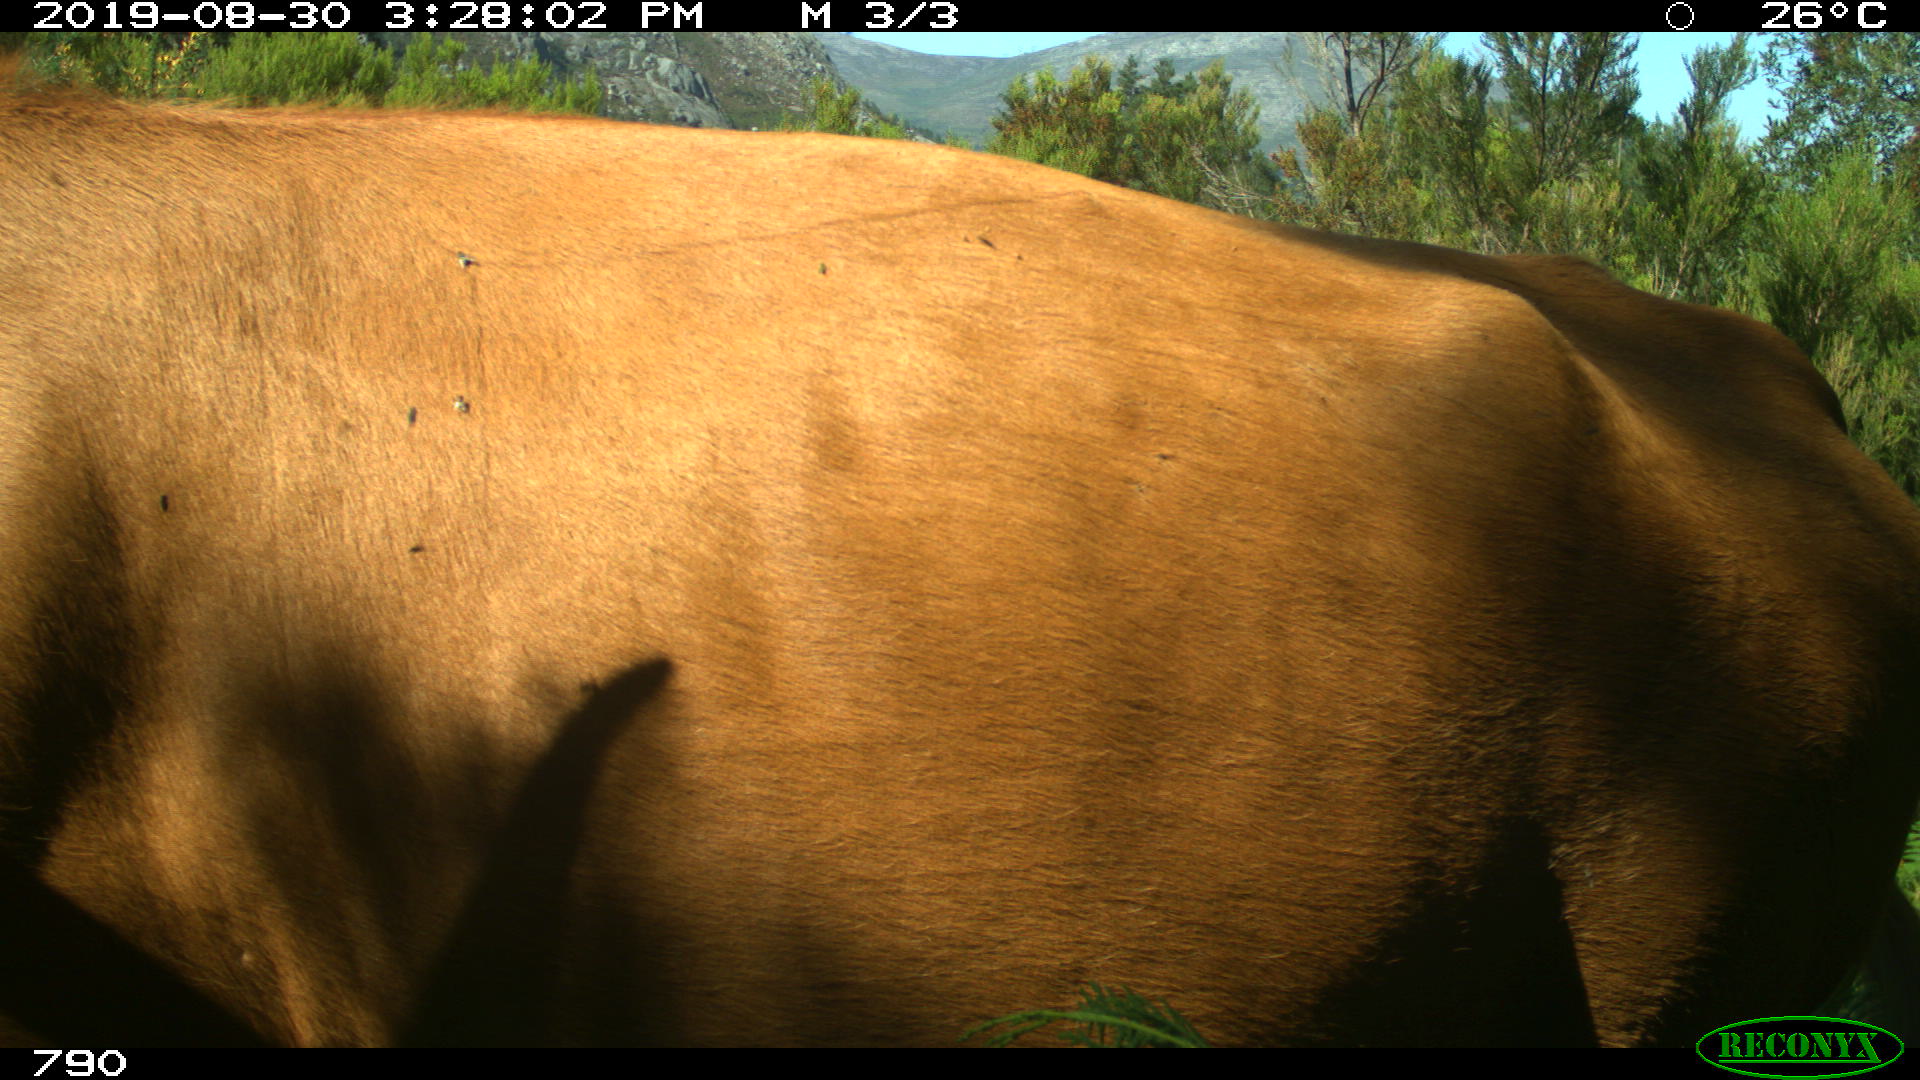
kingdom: Animalia
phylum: Chordata
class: Mammalia
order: Artiodactyla
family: Bovidae
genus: Bos
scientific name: Bos taurus
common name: Domesticated cattle
